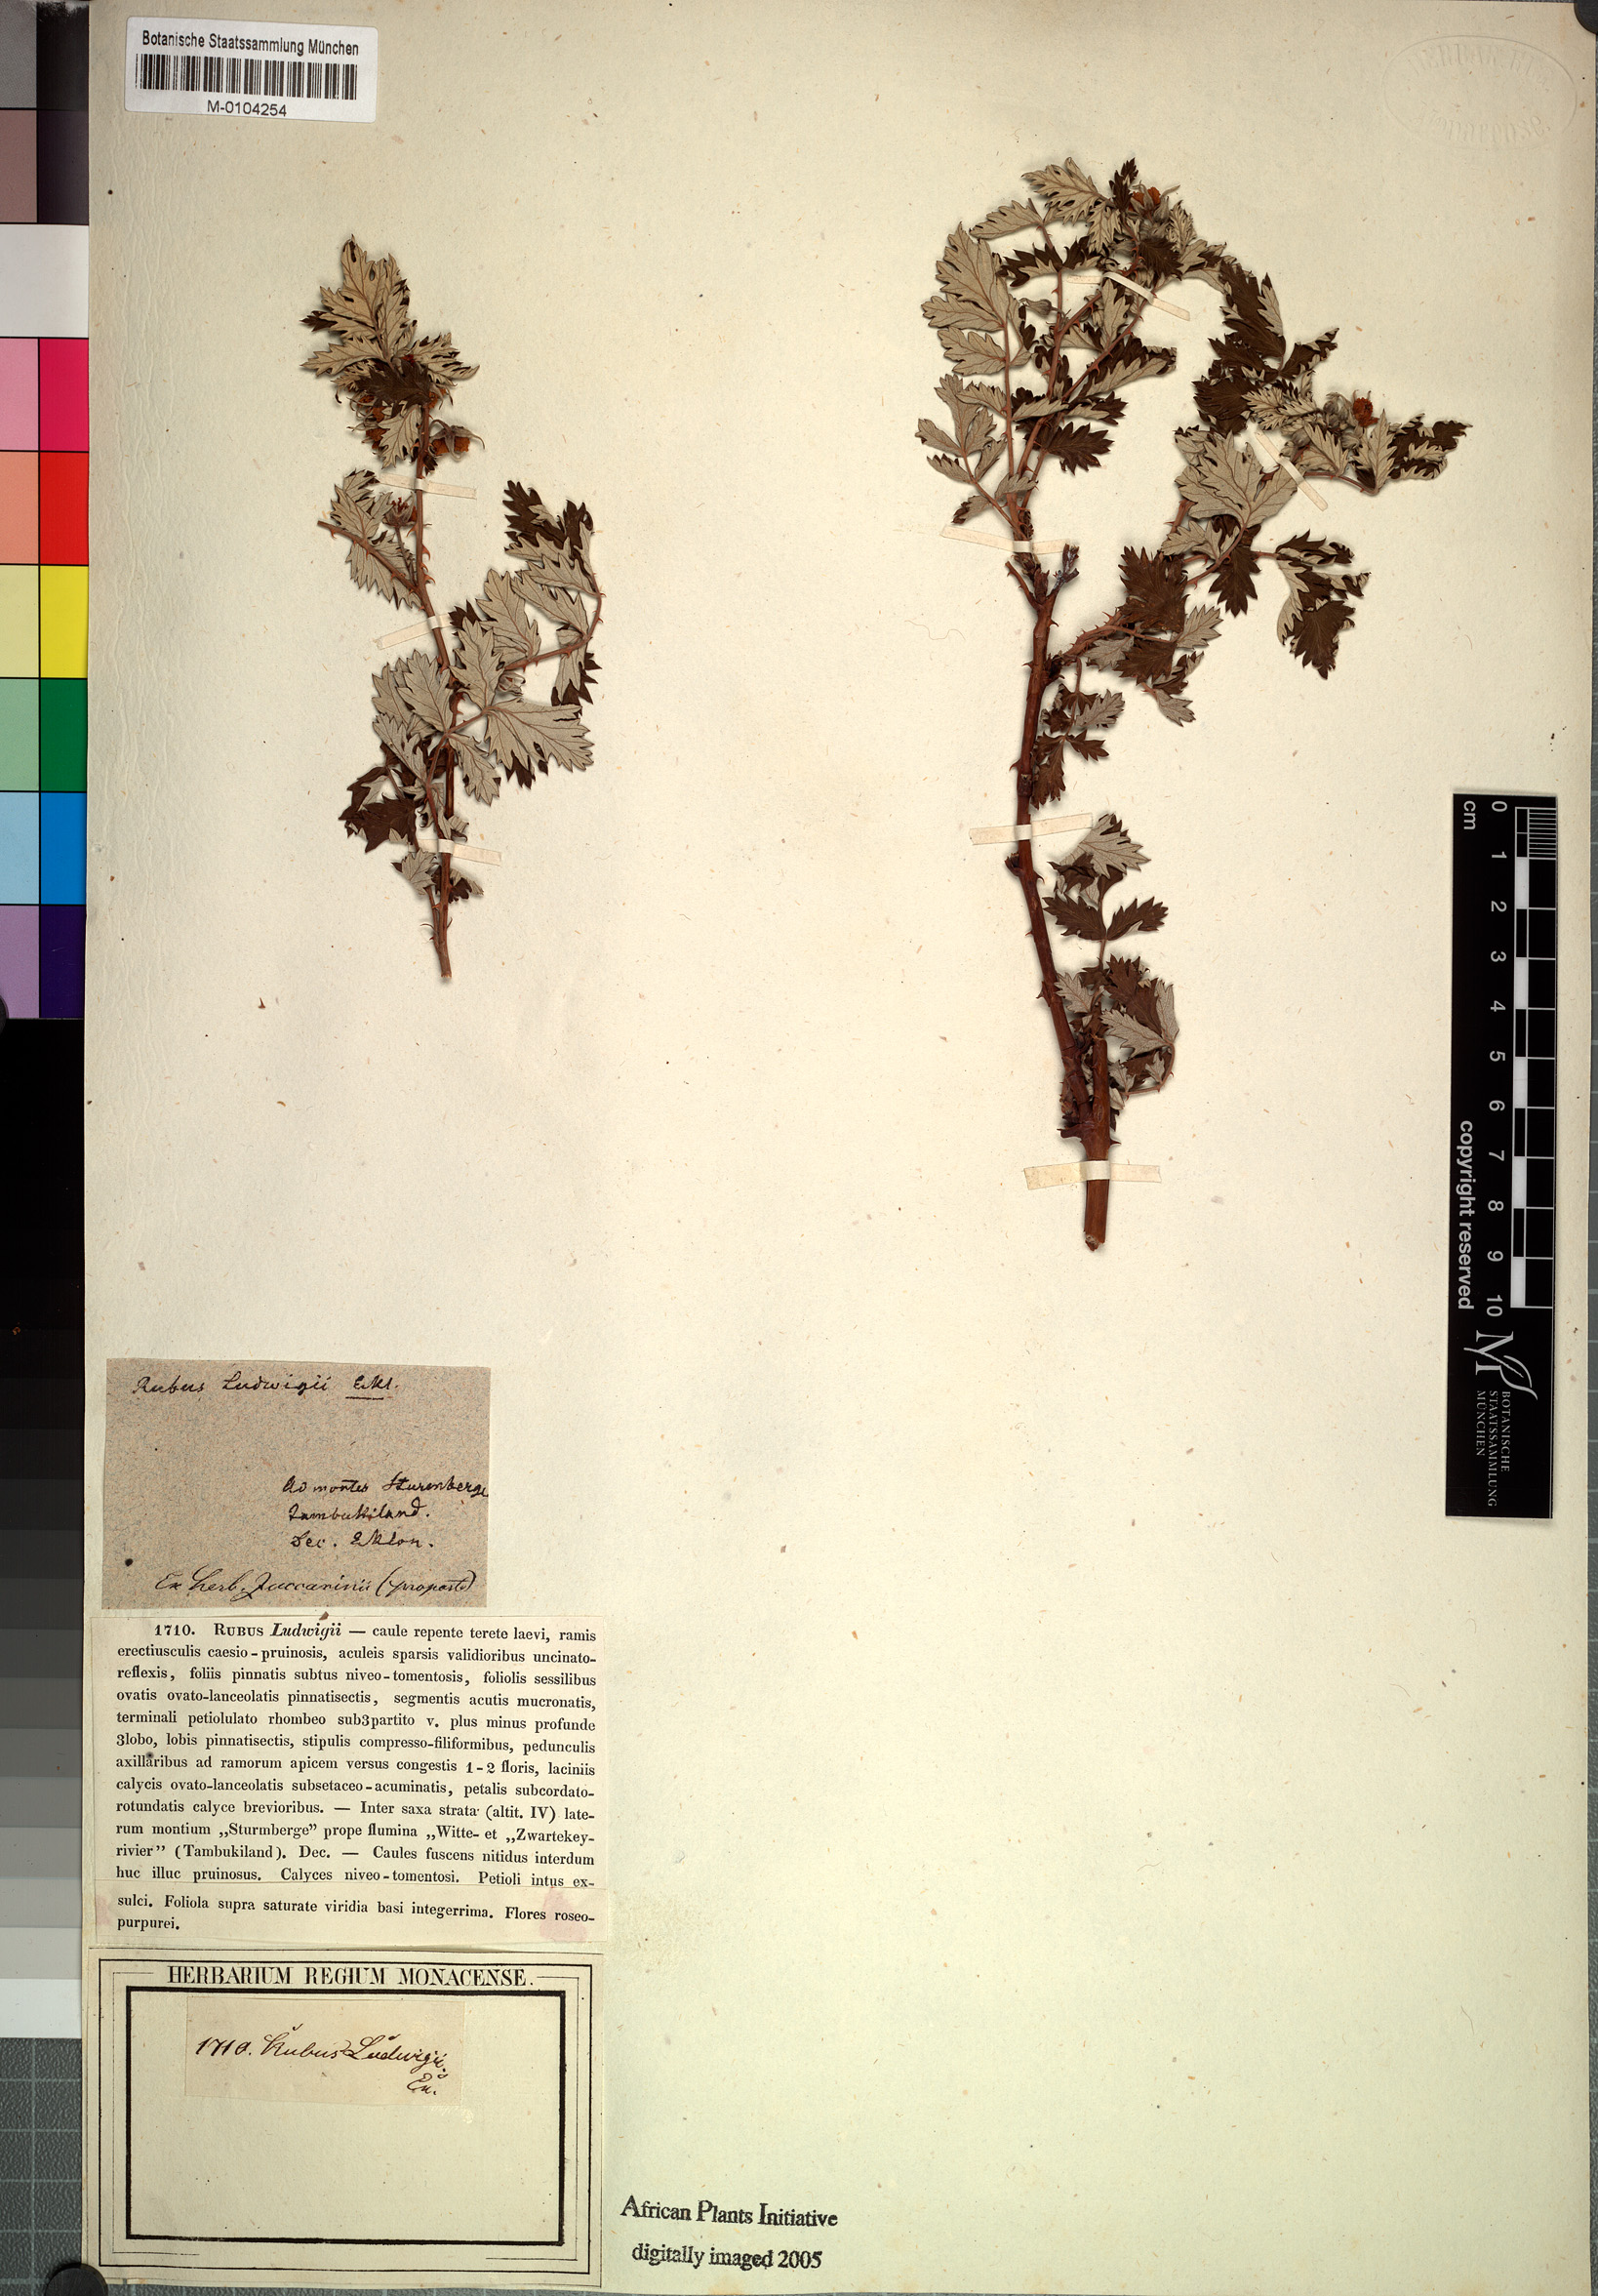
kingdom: Plantae
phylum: Tracheophyta
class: Magnoliopsida
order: Rosales
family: Rosaceae
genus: Rubus
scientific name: Rubus ludwigii
